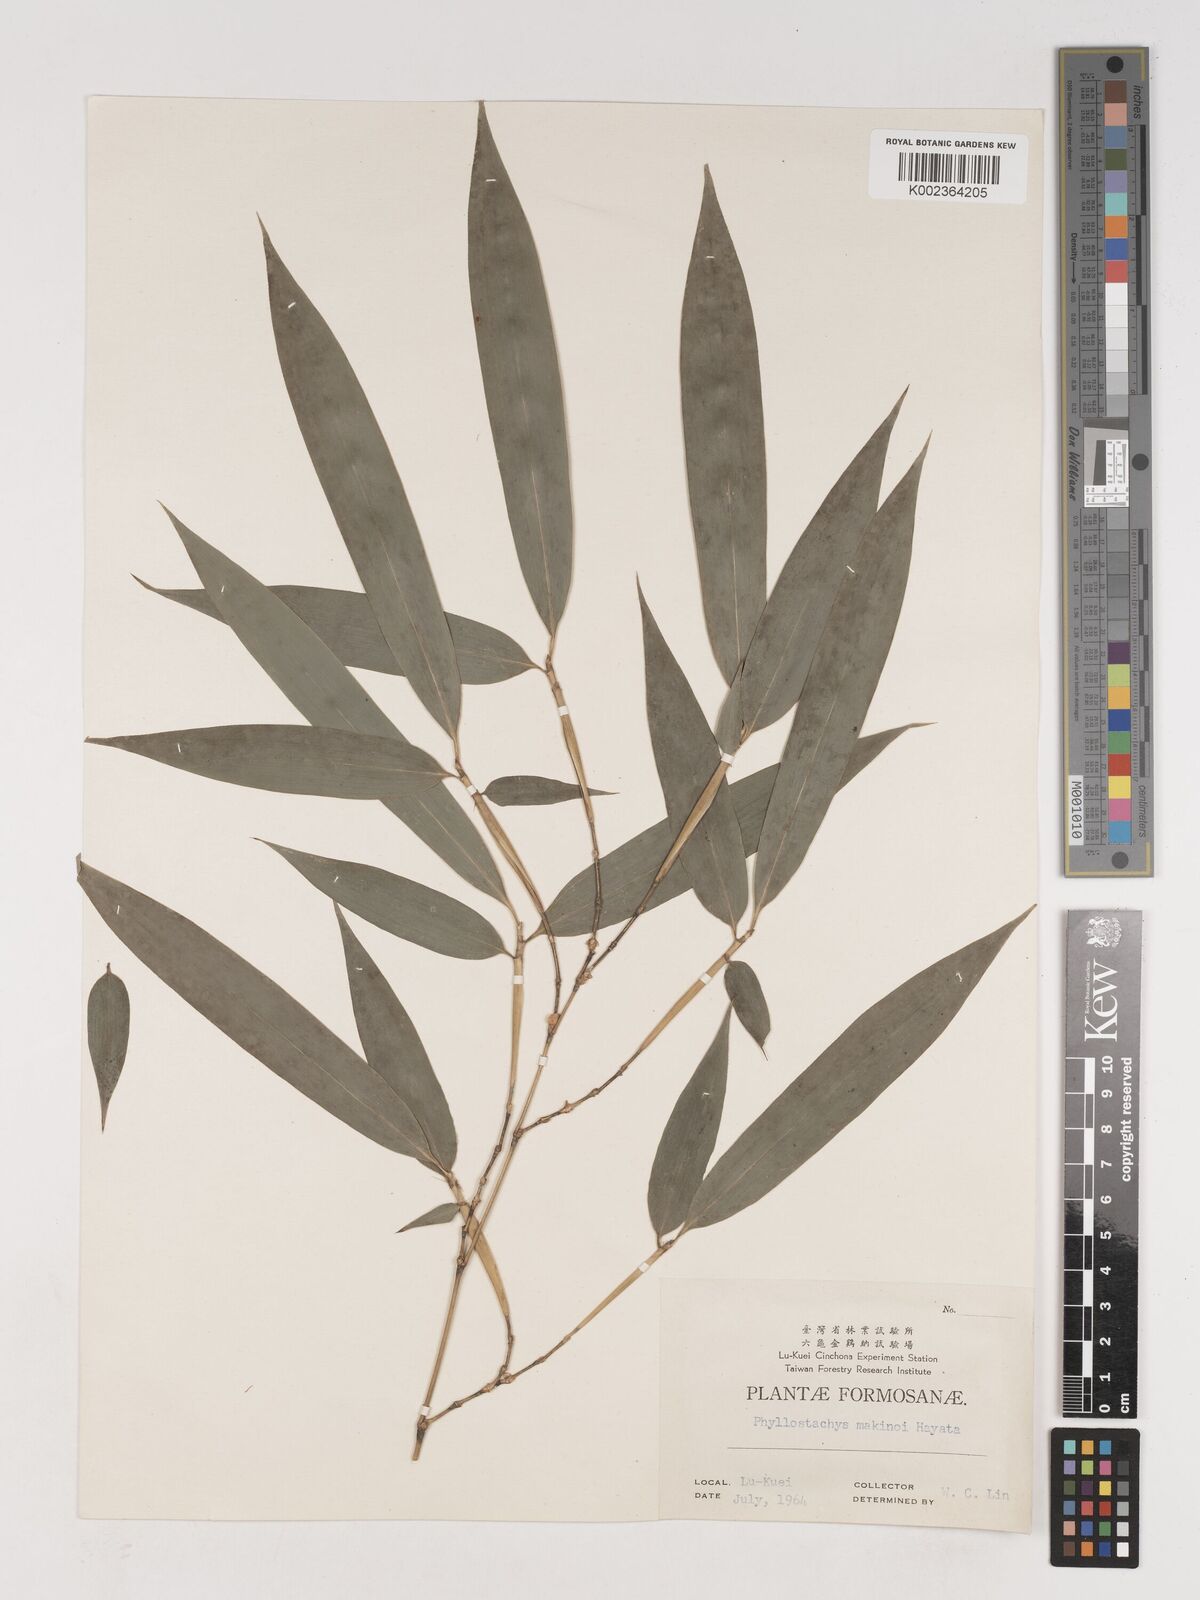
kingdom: Plantae
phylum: Tracheophyta
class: Liliopsida
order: Poales
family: Poaceae
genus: Phyllostachys
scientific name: Phyllostachys makinoi
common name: Makino bamboo
